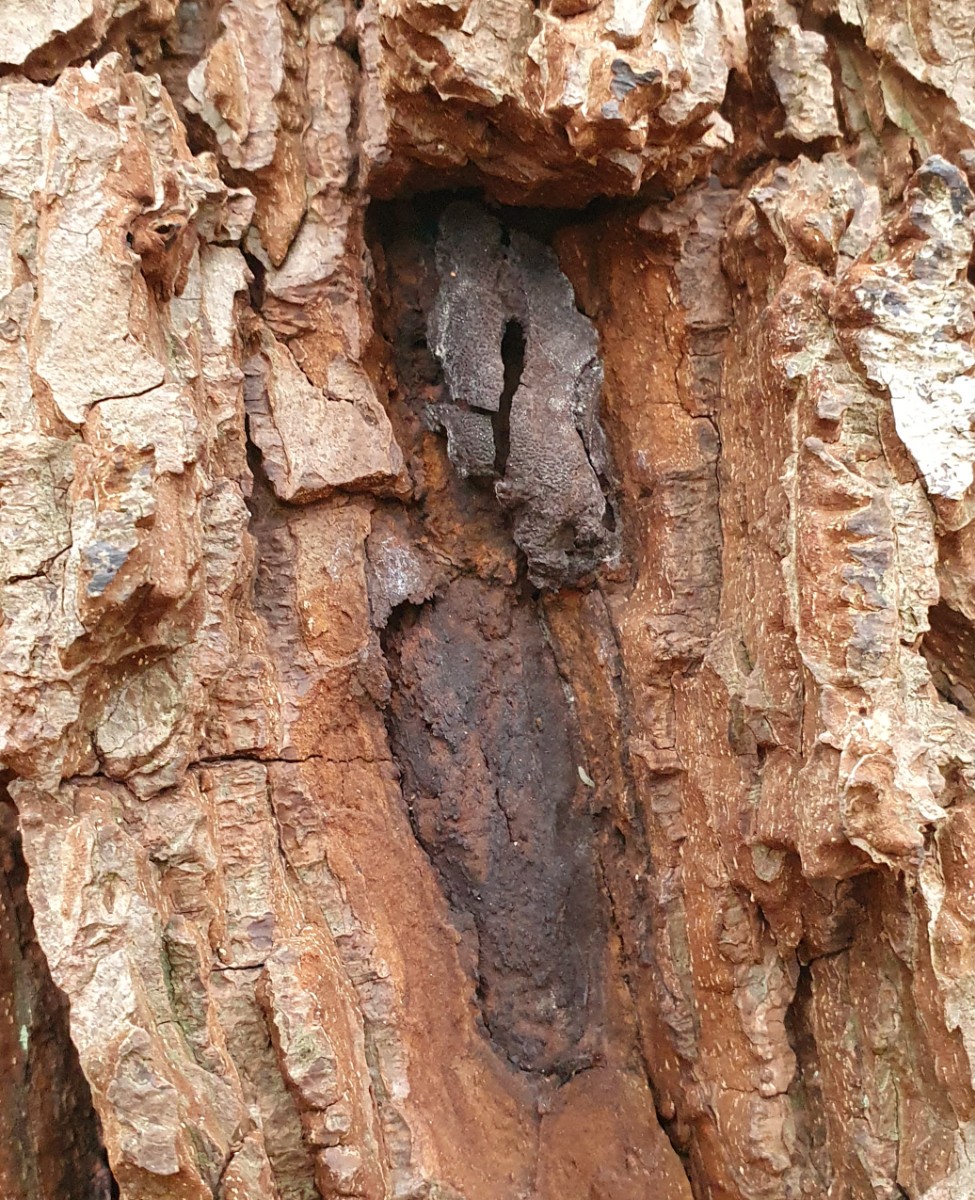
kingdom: Fungi
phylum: Ascomycota
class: Sordariomycetes
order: Boliniales
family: Boliniaceae
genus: Camarops
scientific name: Camarops polysperma
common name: elle-kulsnegl
